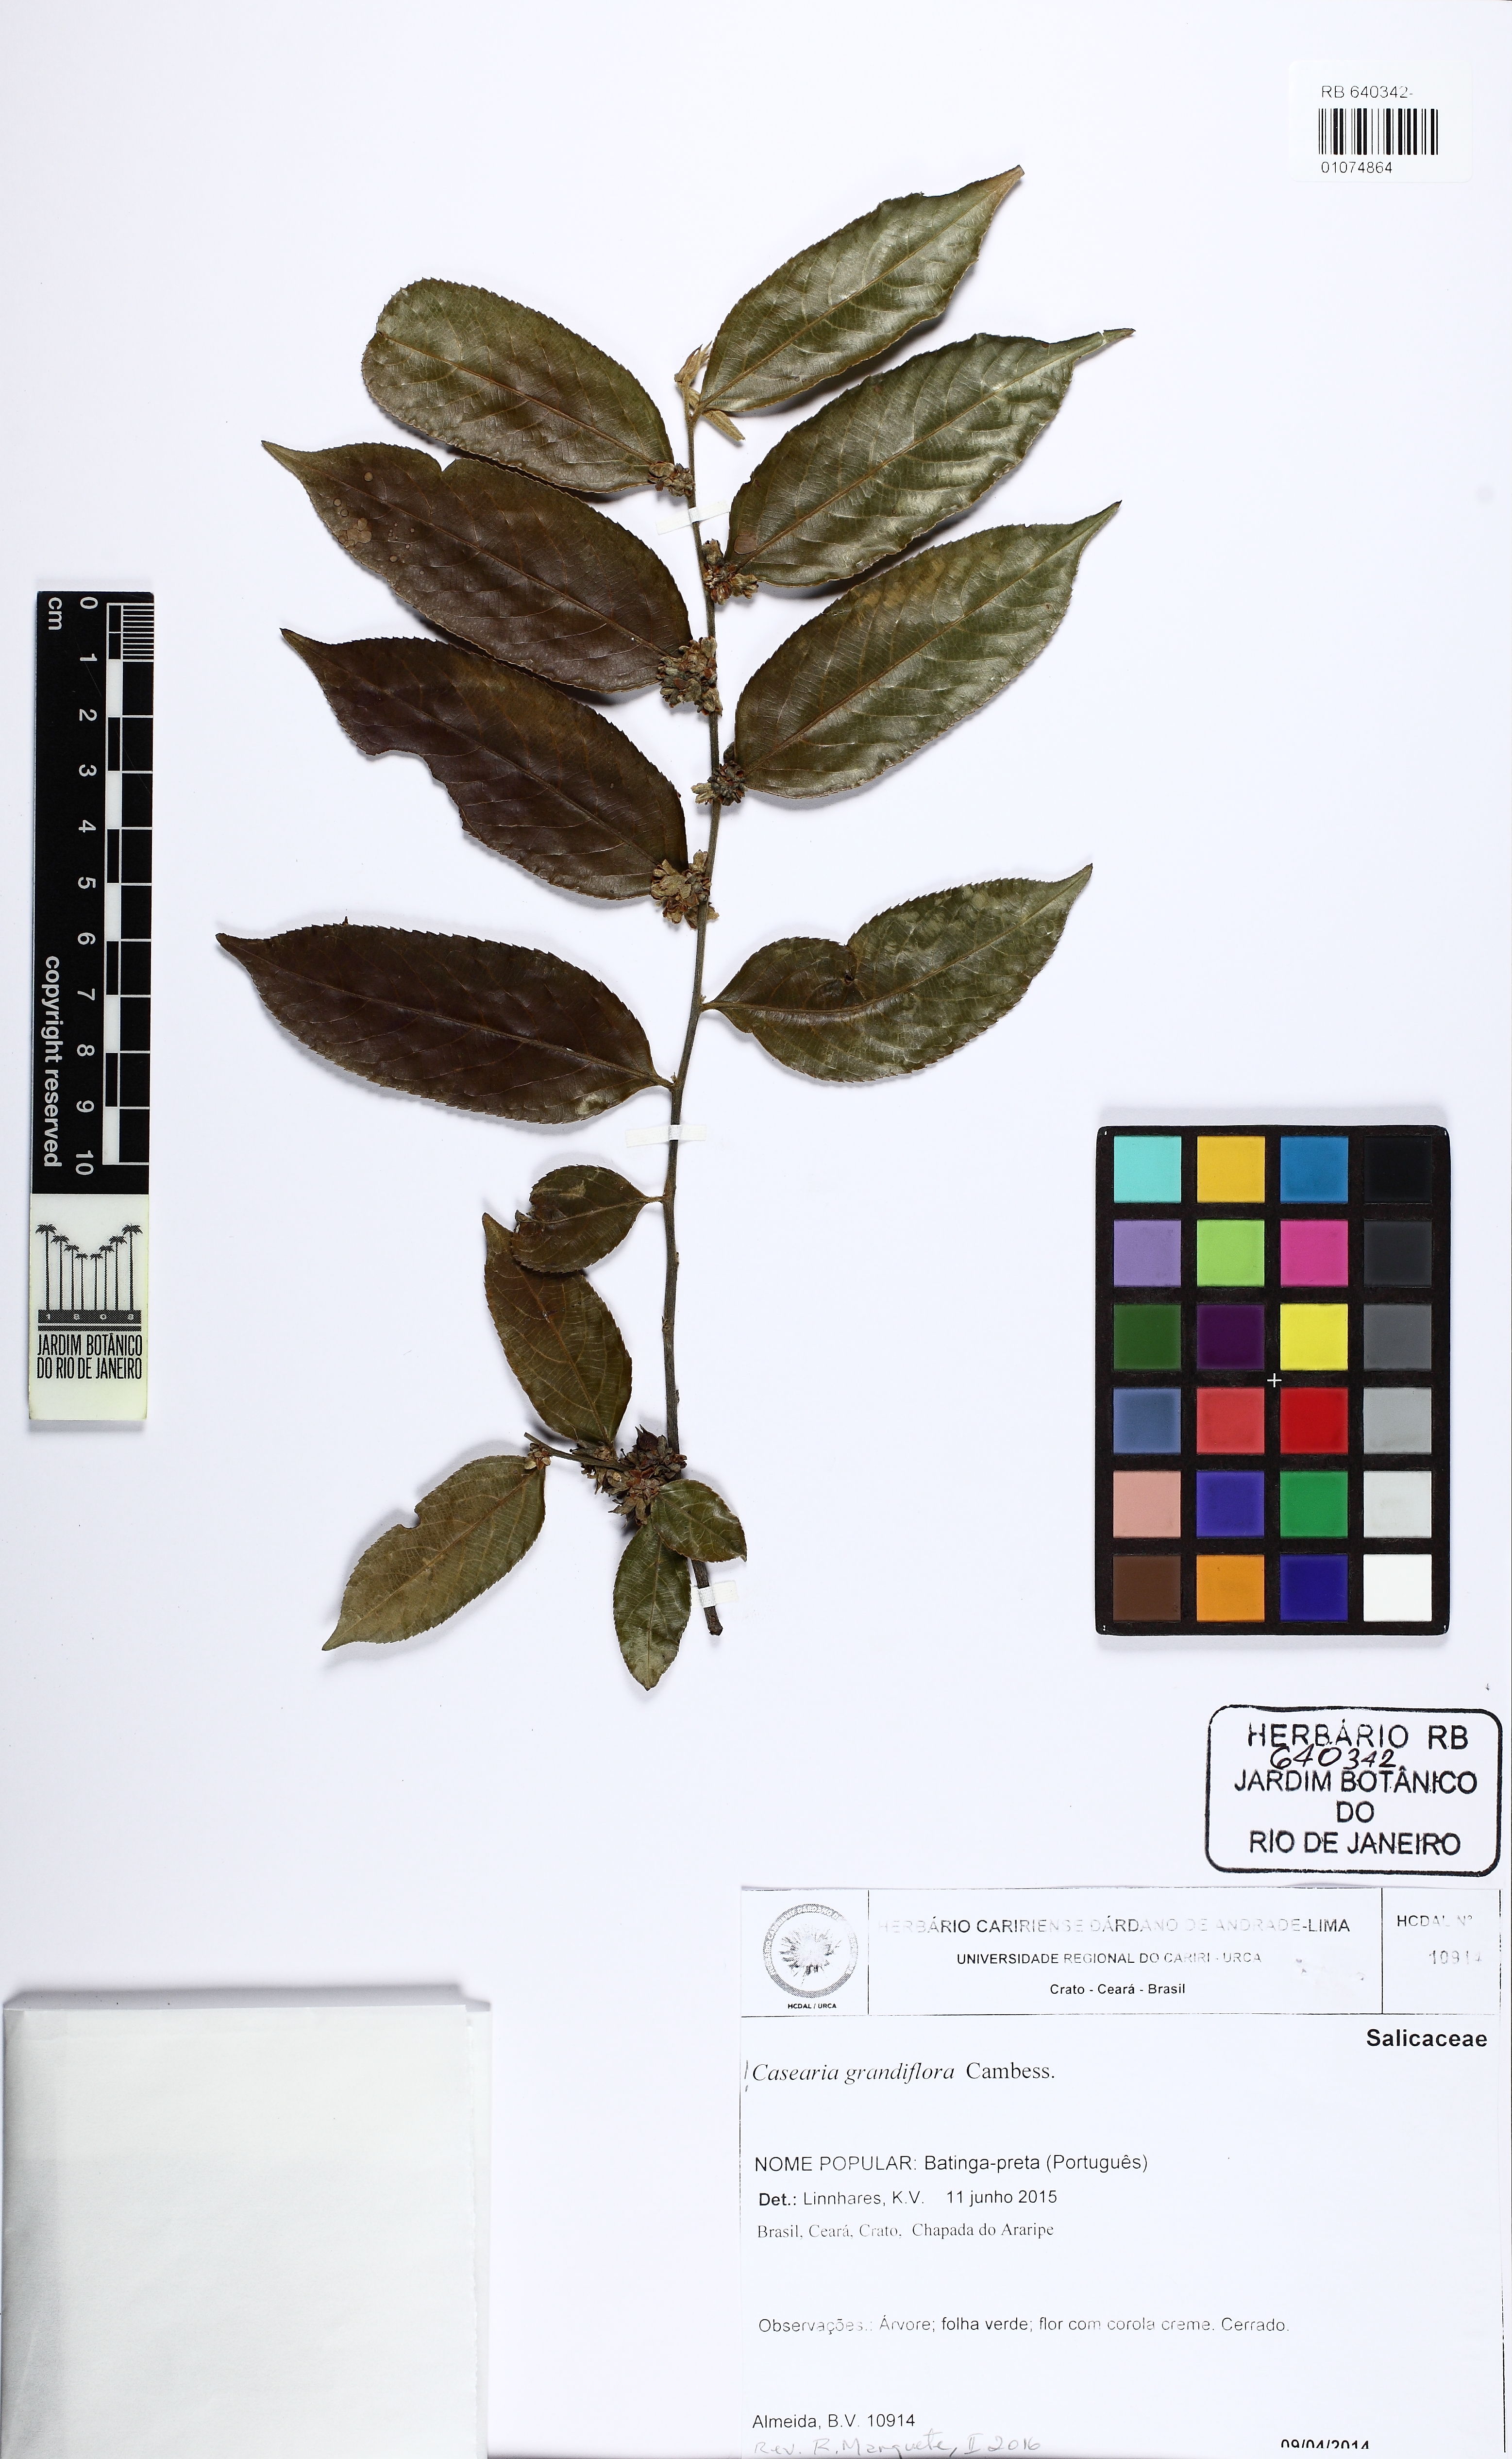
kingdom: Plantae
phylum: Tracheophyta
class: Magnoliopsida
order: Malpighiales
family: Salicaceae
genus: Casearia
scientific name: Casearia grandiflora
